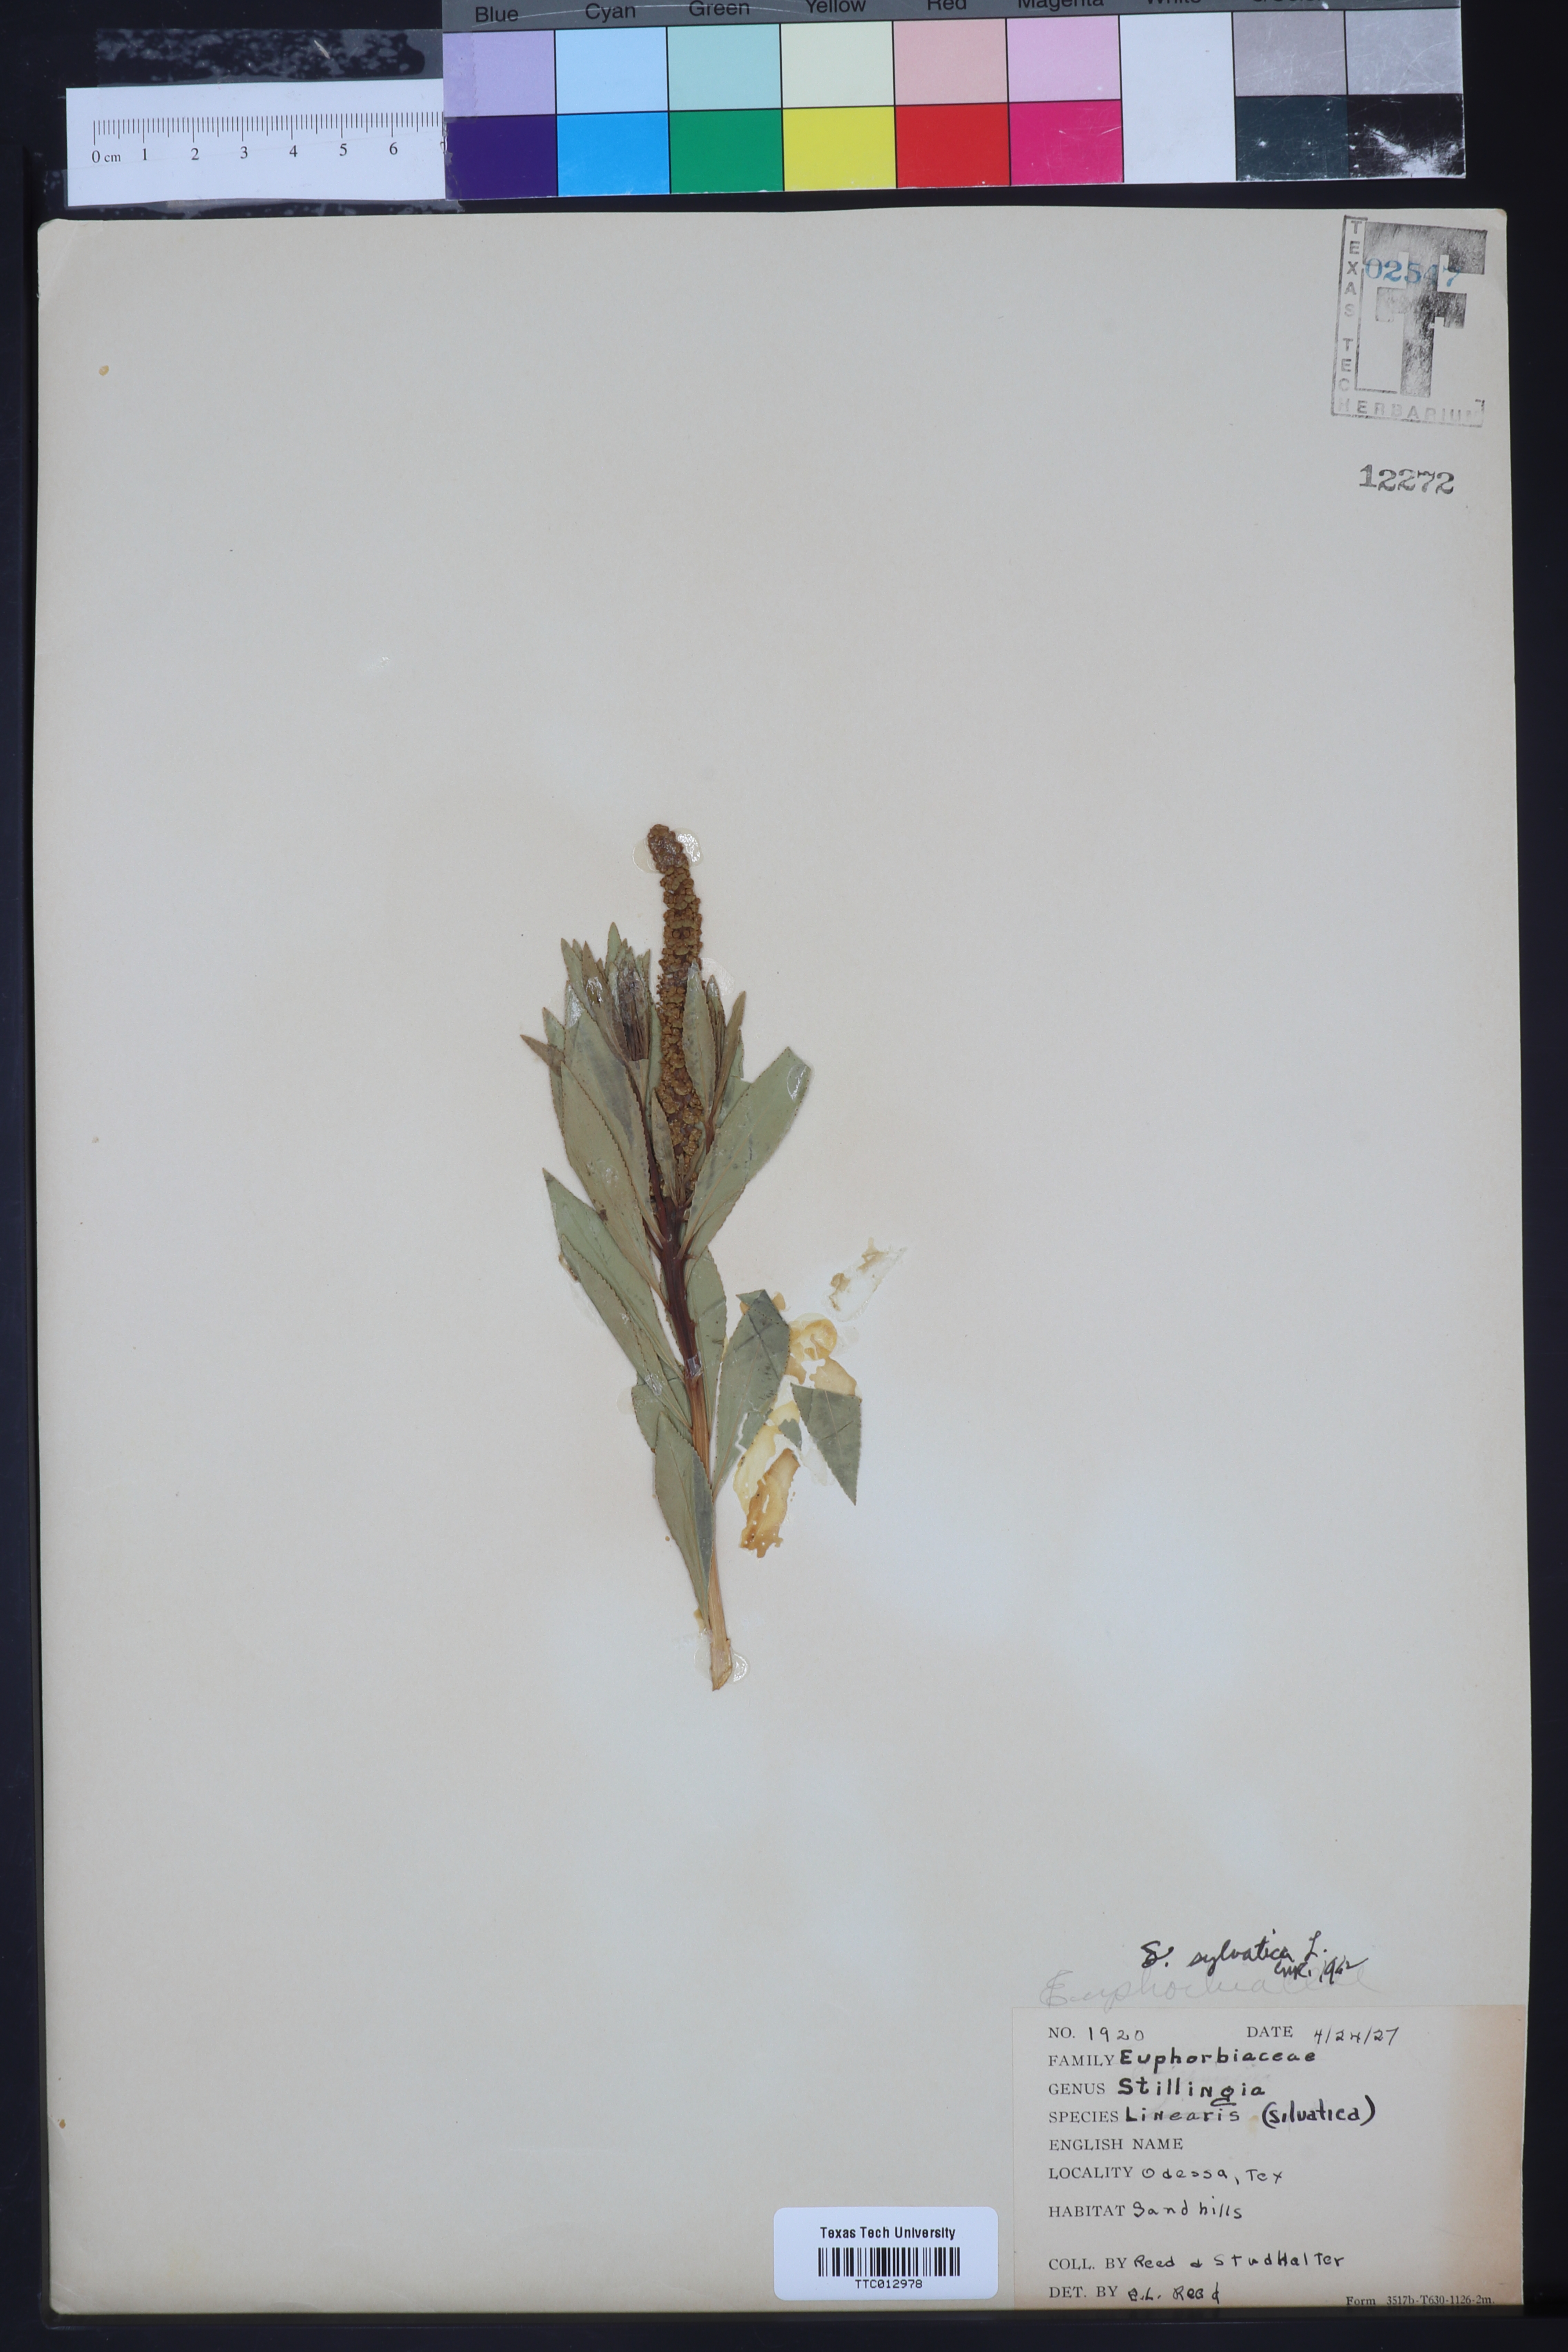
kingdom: Plantae
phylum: Tracheophyta
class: Magnoliopsida
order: Malpighiales
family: Euphorbiaceae
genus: Stillingia
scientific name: Stillingia sylvatica
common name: Queen's-delight
